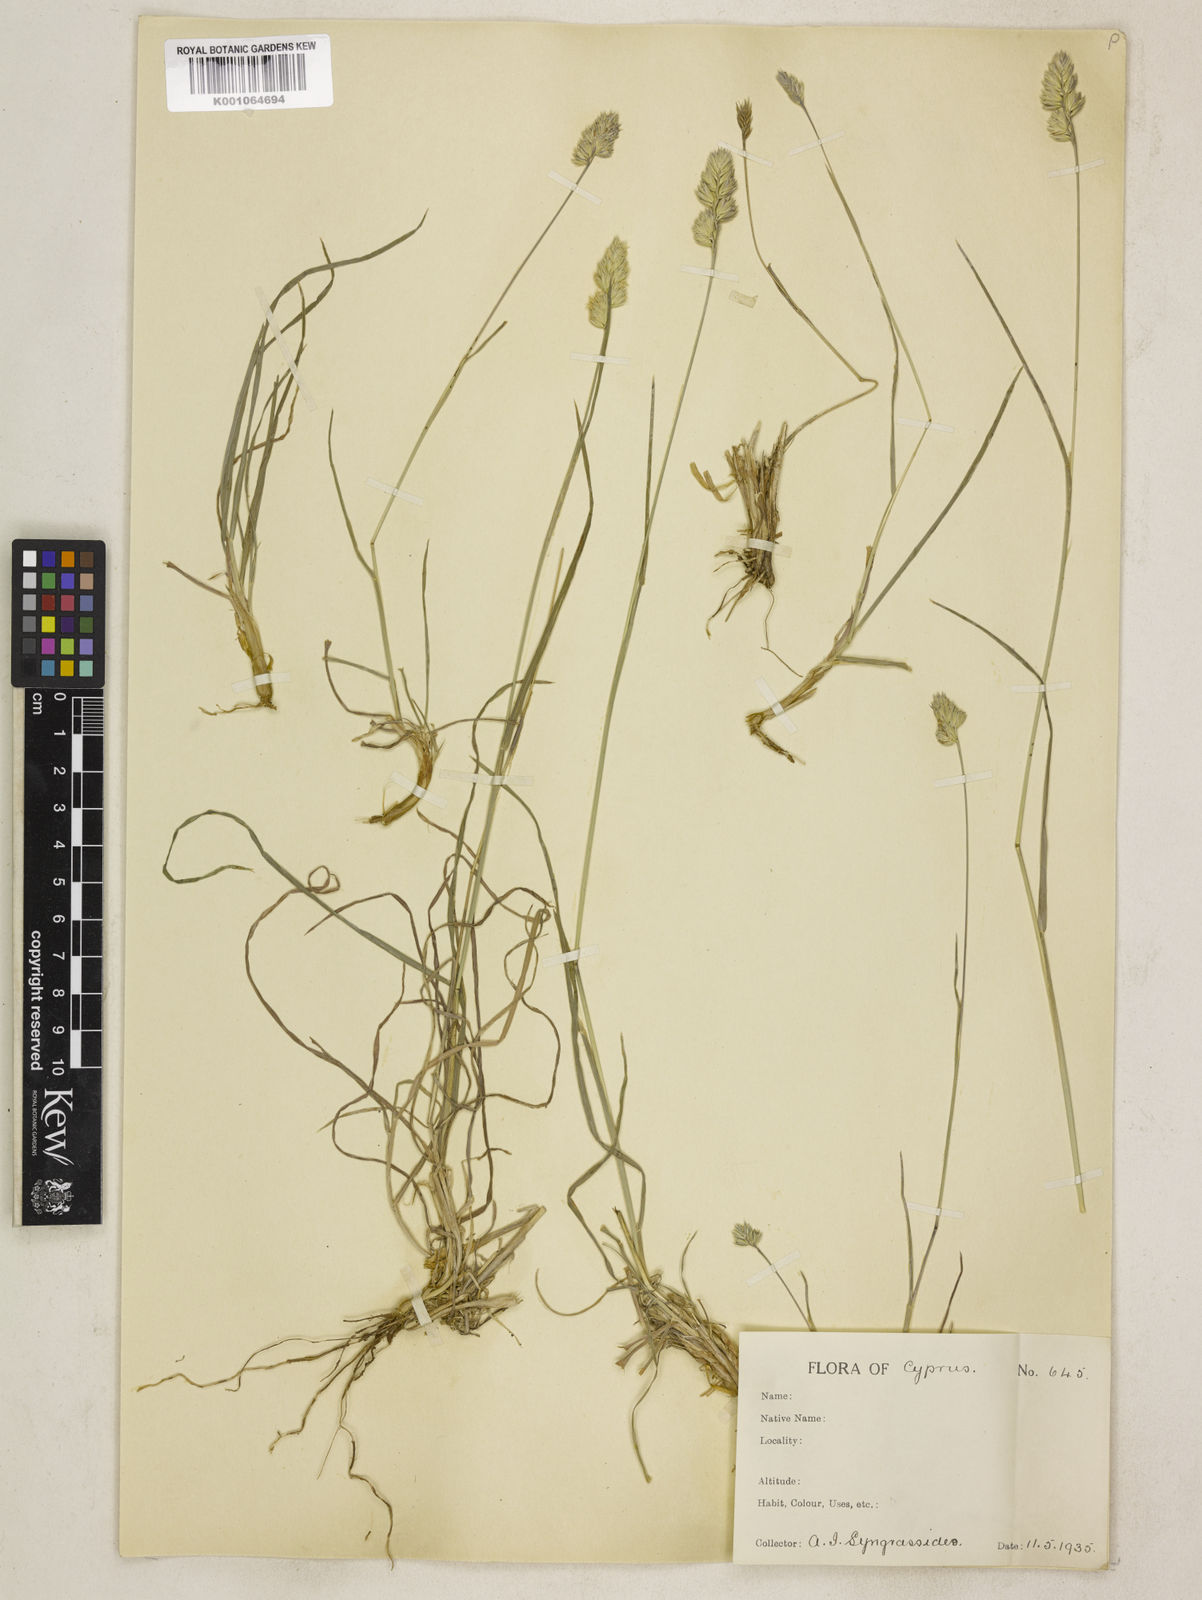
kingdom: Plantae
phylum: Tracheophyta
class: Liliopsida
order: Poales
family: Poaceae
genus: Dactylis
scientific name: Dactylis glomerata
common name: Orchardgrass
